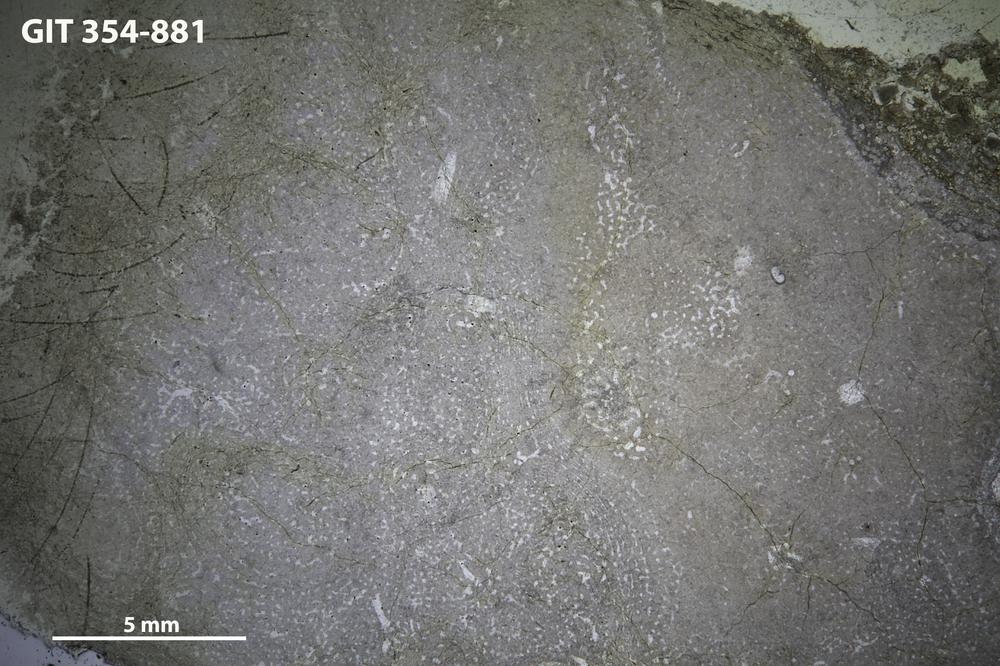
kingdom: Animalia
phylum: Porifera
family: Stromatoporidae
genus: Parallelostroma
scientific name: Parallelostroma
